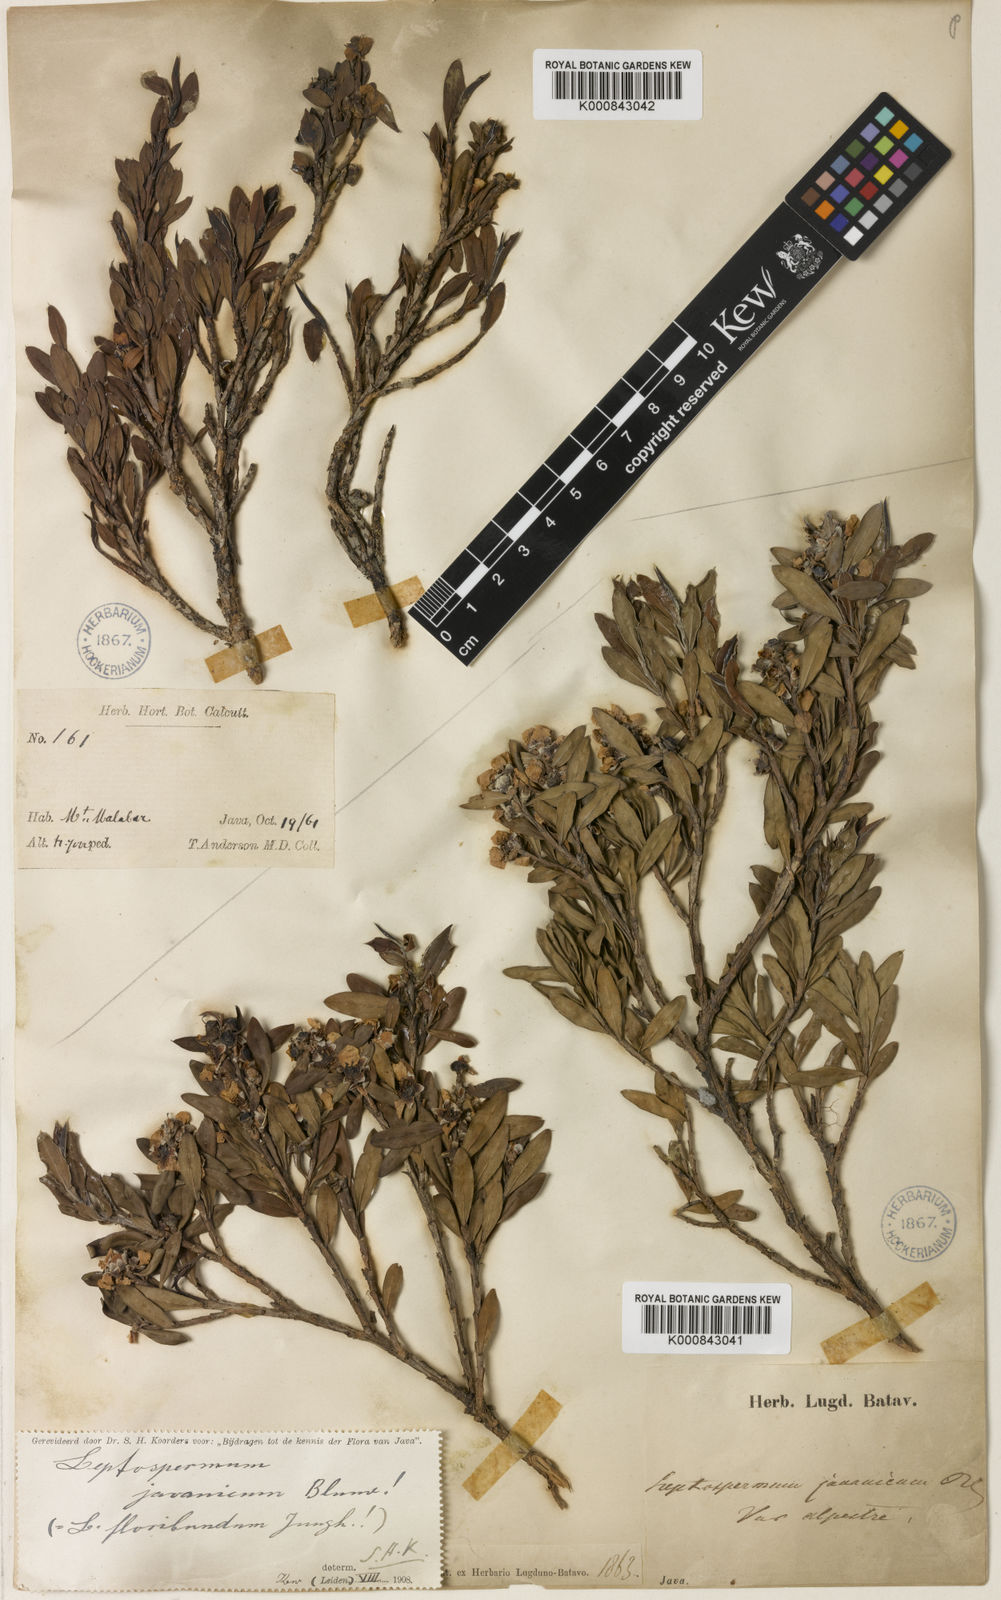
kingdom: Plantae
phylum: Tracheophyta
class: Magnoliopsida
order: Myrtales
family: Myrtaceae
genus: Leptospermum
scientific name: Leptospermum javanicum
